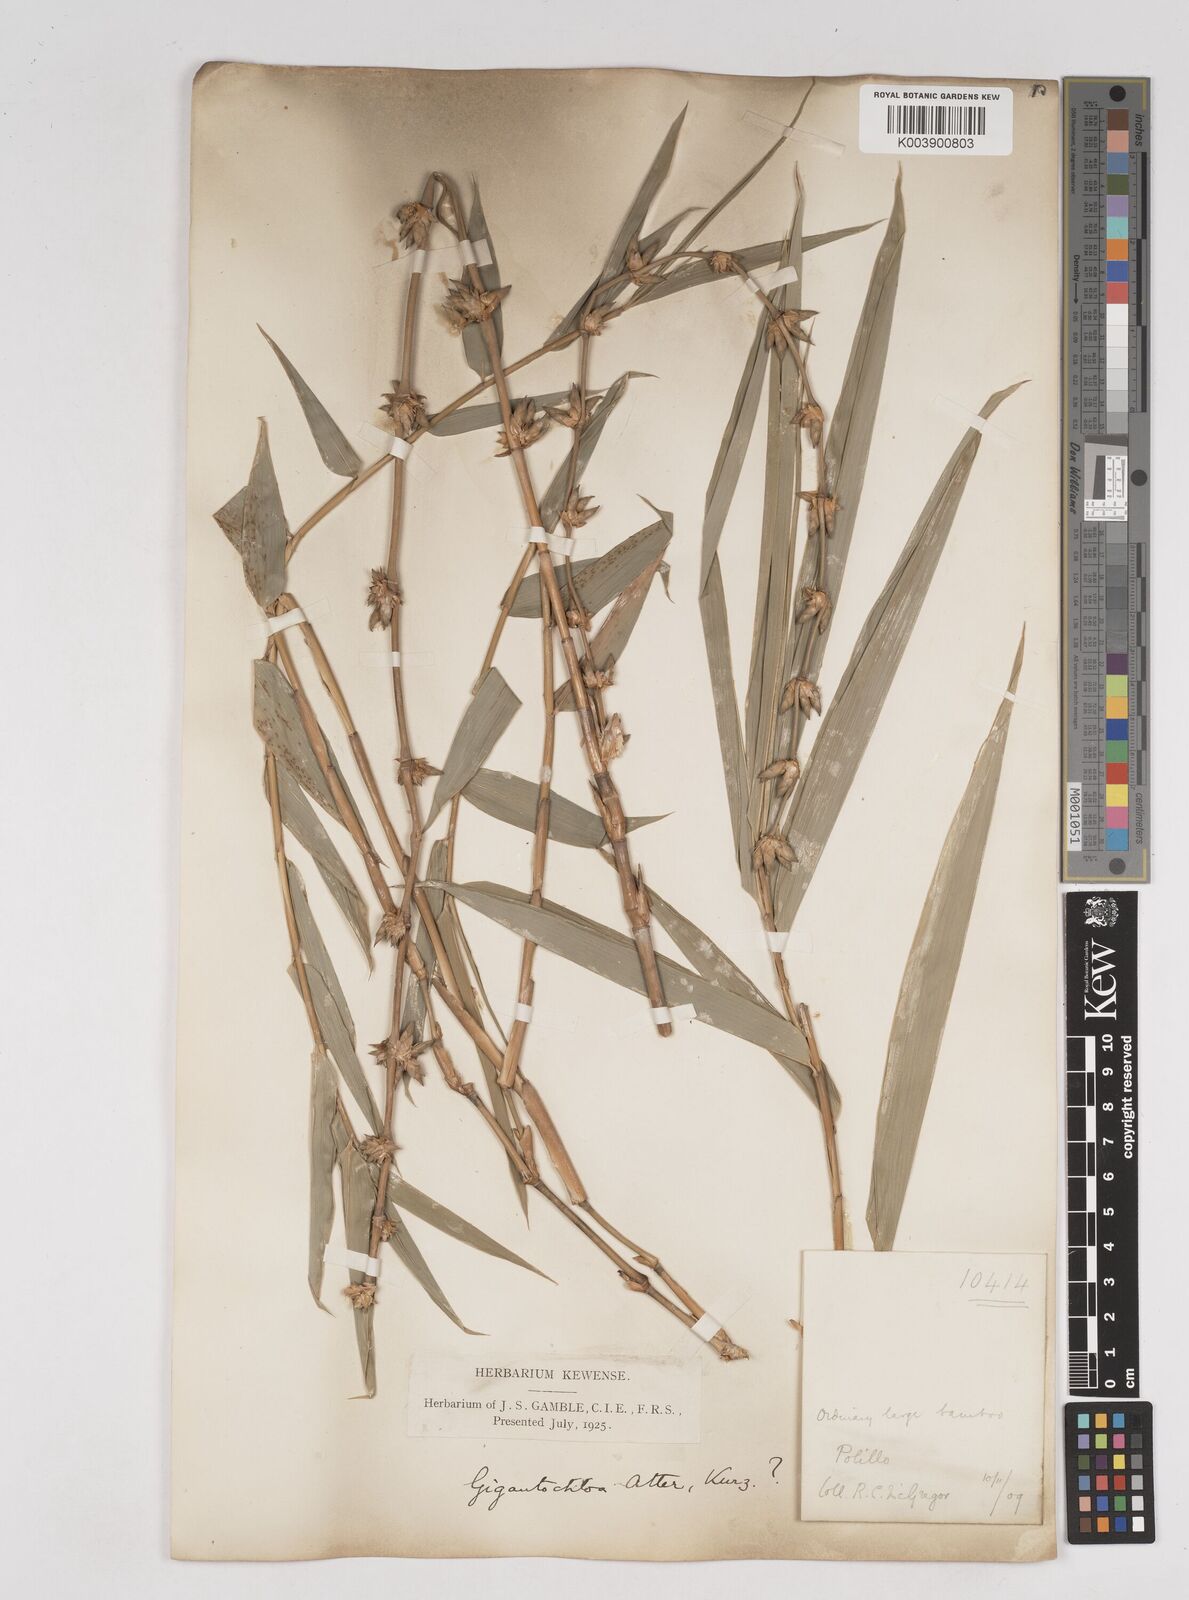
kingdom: Plantae
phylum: Tracheophyta
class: Liliopsida
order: Poales
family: Poaceae
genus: Gigantochloa
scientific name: Gigantochloa levis
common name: Smooth-shoot gigantochloa
